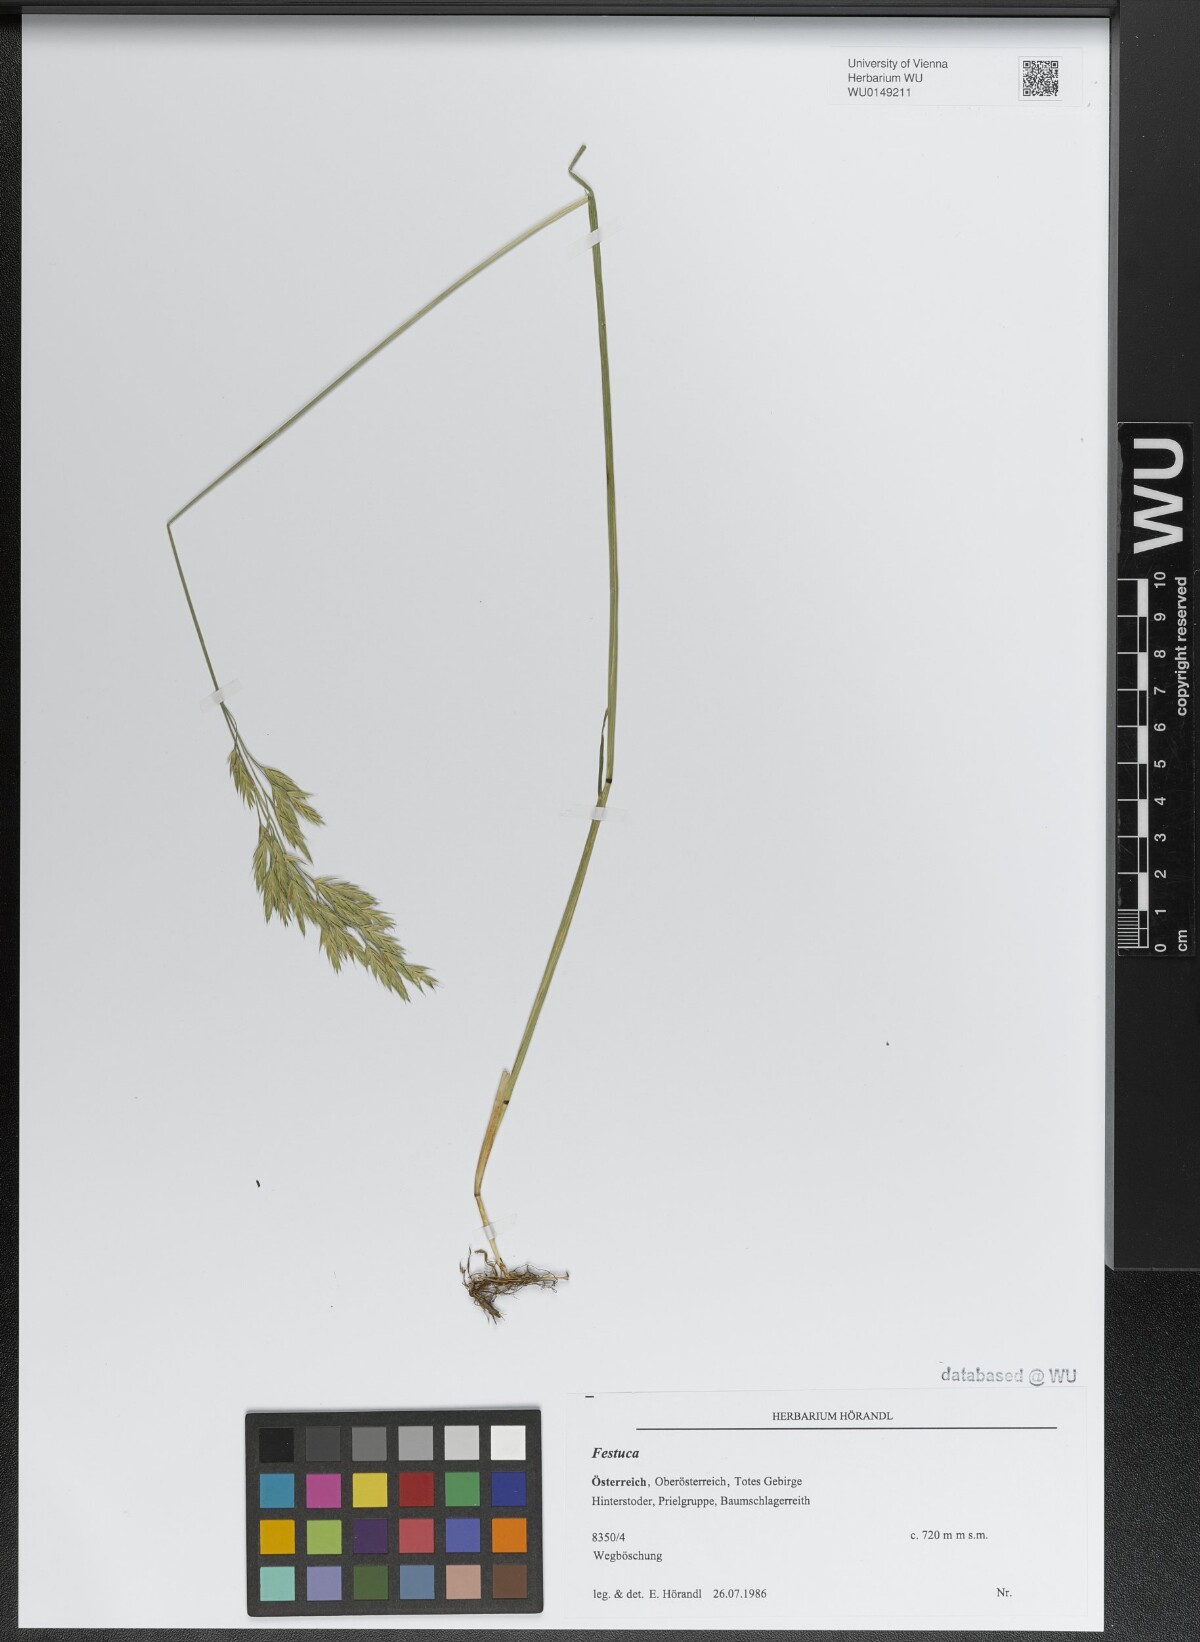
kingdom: Plantae
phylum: Tracheophyta
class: Liliopsida
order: Poales
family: Poaceae
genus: Festuca
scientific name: Festuca
